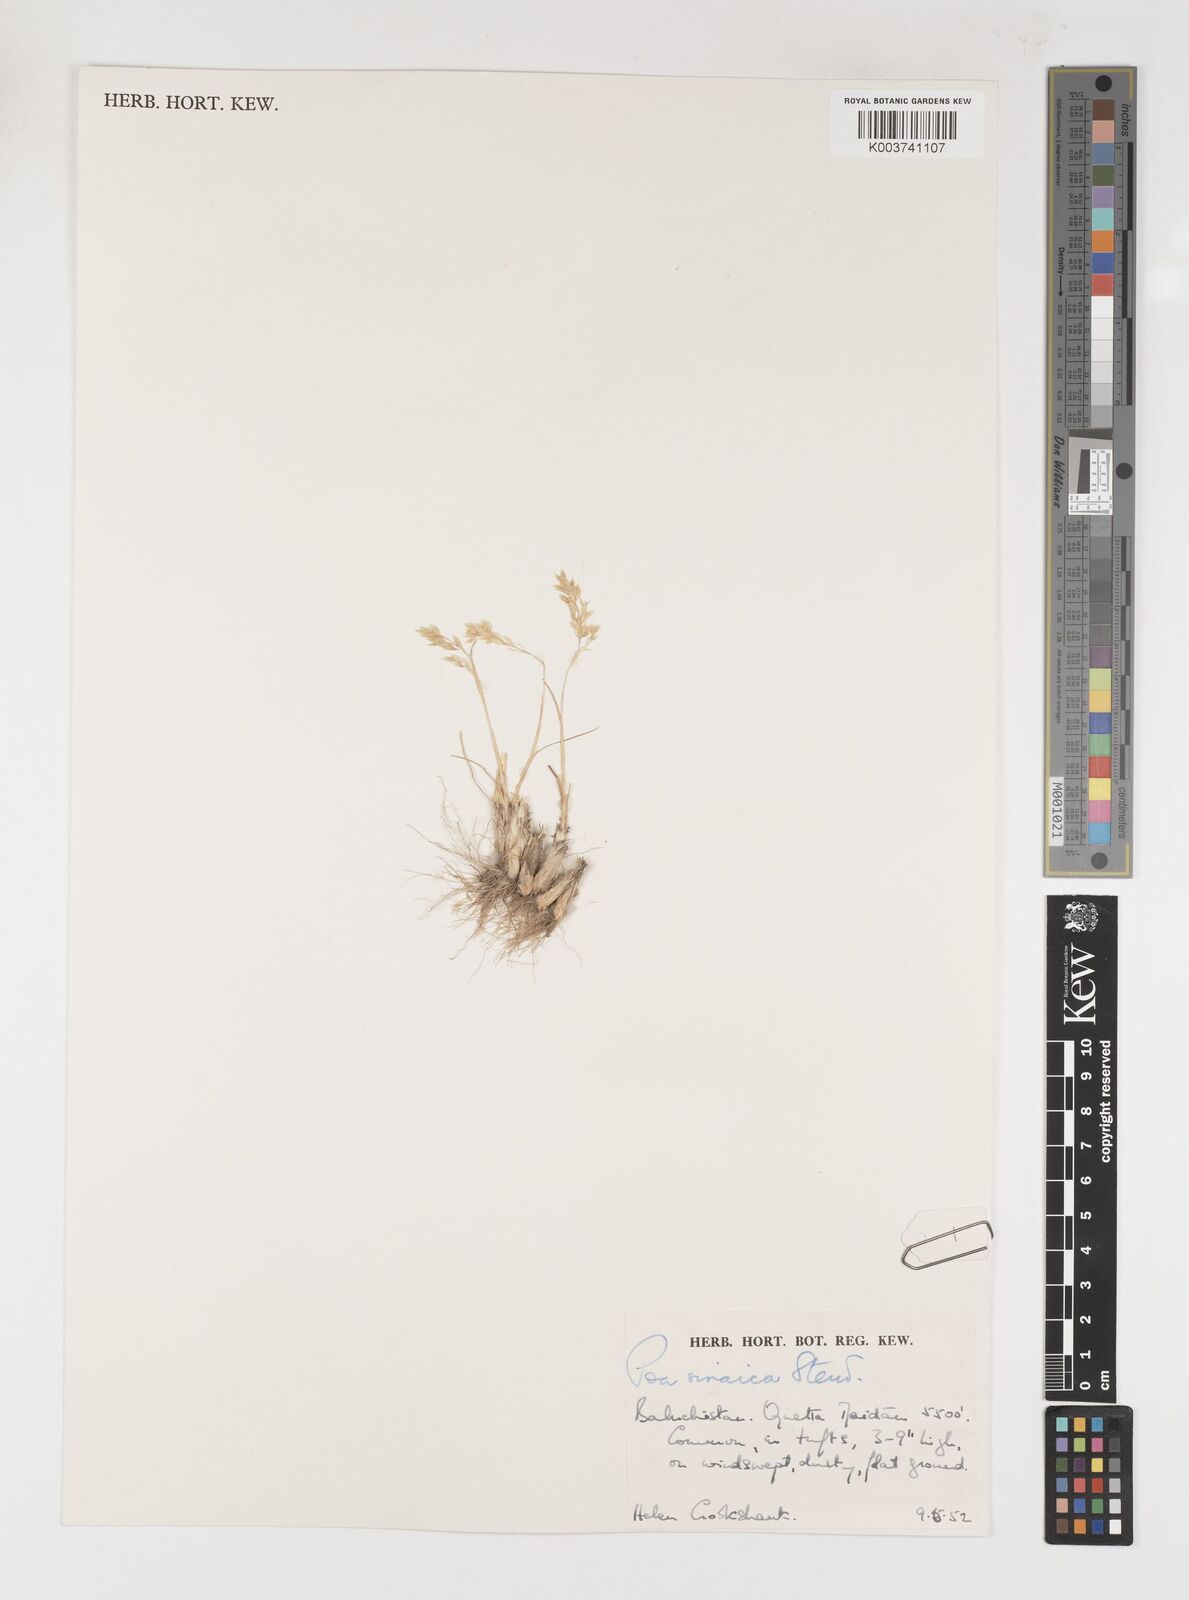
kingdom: Plantae
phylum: Tracheophyta
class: Liliopsida
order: Poales
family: Poaceae
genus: Poa
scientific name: Poa sinaica
